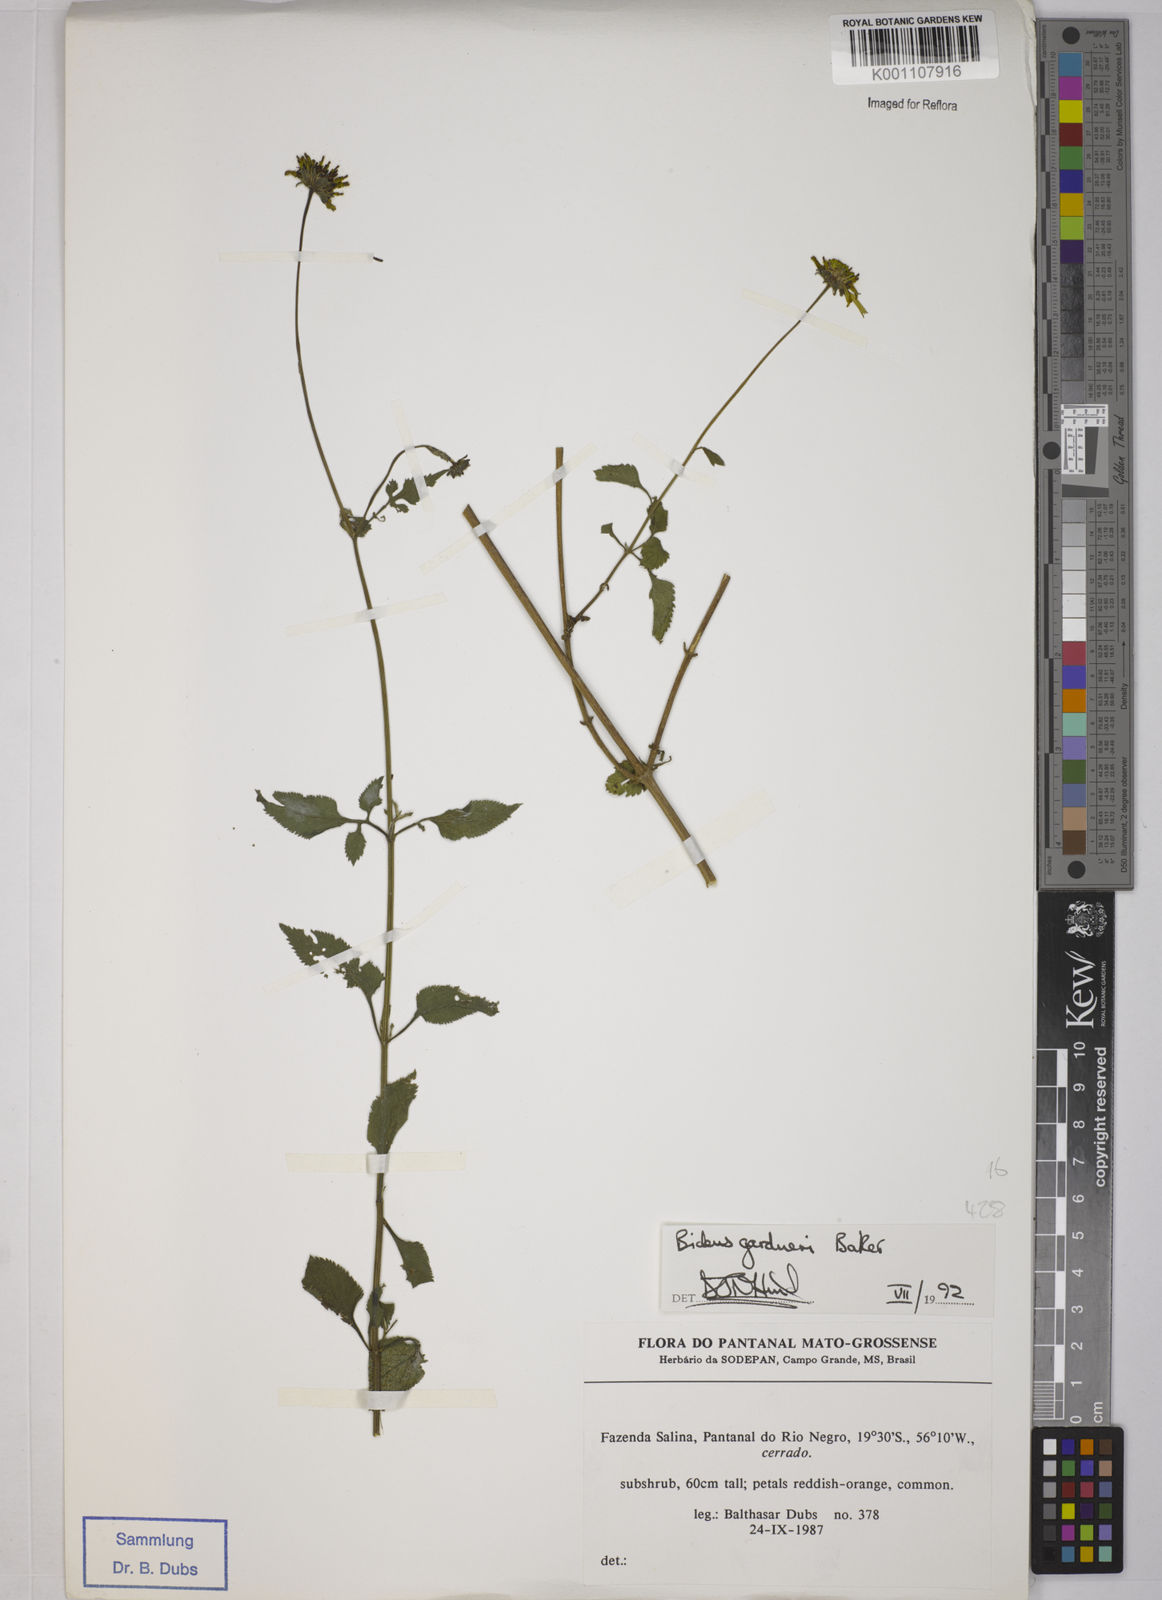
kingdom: Plantae
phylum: Tracheophyta
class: Magnoliopsida
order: Asterales
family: Asteraceae
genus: Bidens
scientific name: Bidens gardneri
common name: Ridge beggartick
